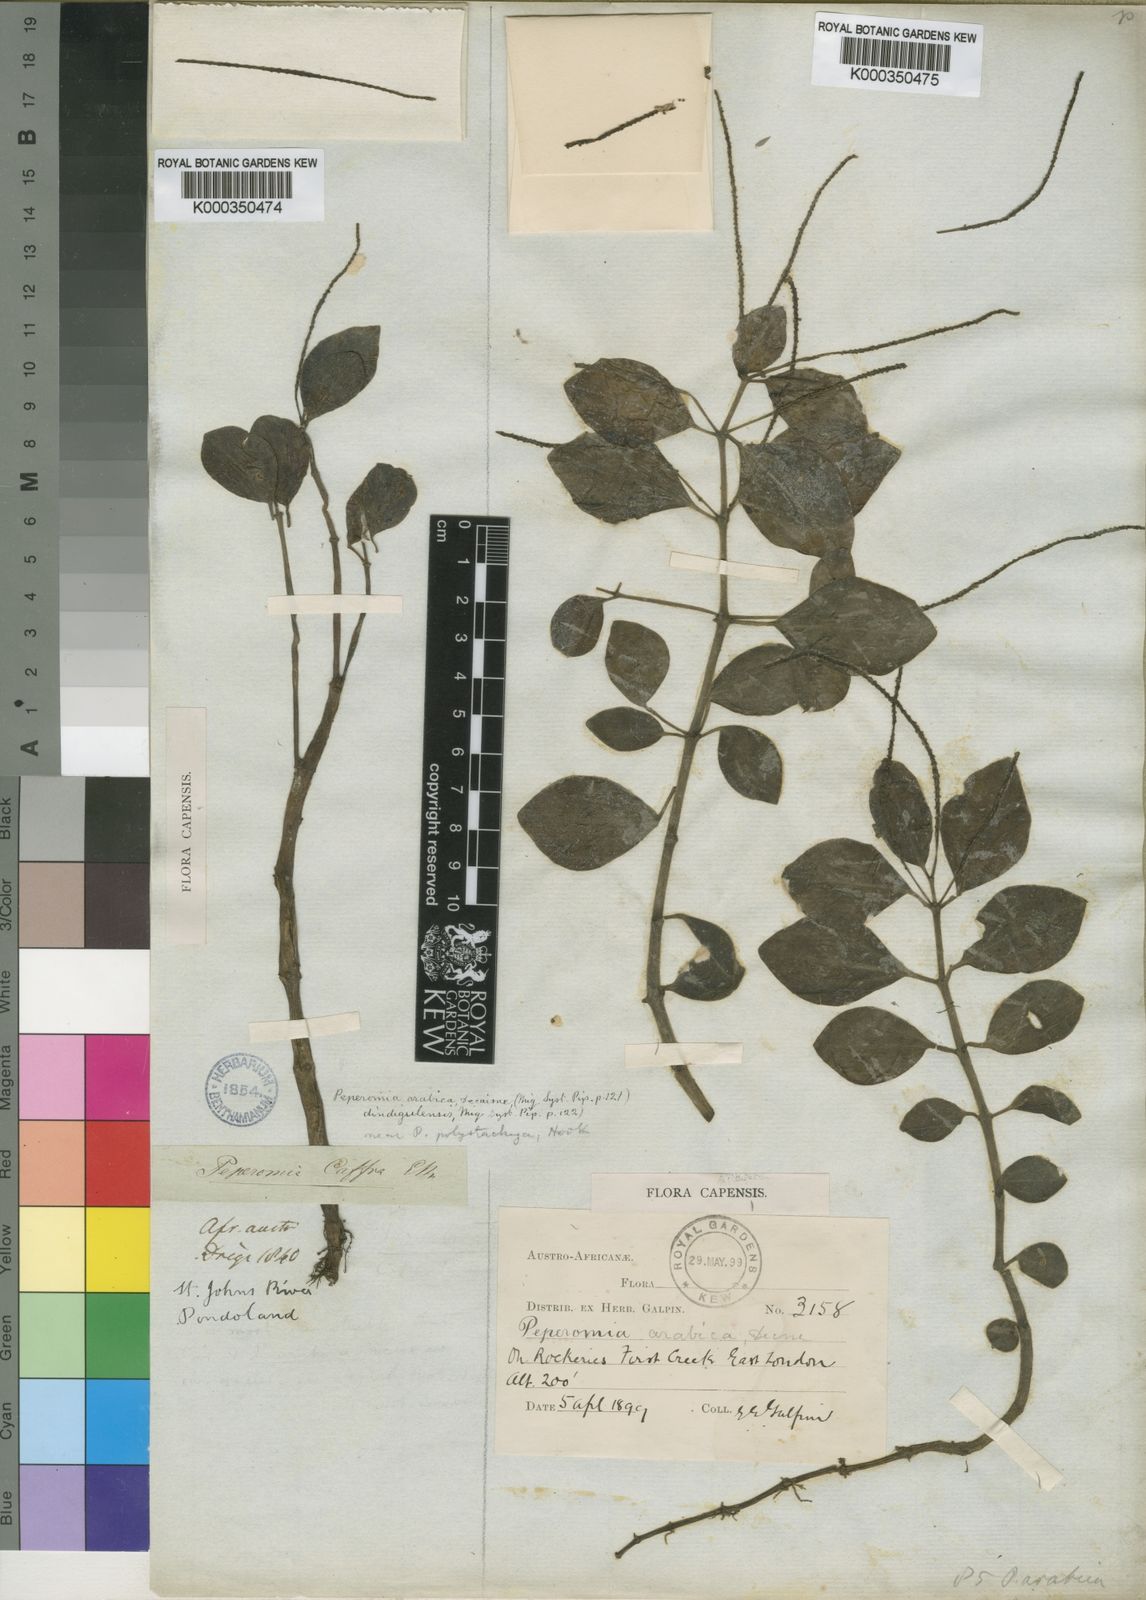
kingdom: Plantae
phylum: Tracheophyta
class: Magnoliopsida
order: Piperales
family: Piperaceae
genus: Peperomia
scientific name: Peperomia
